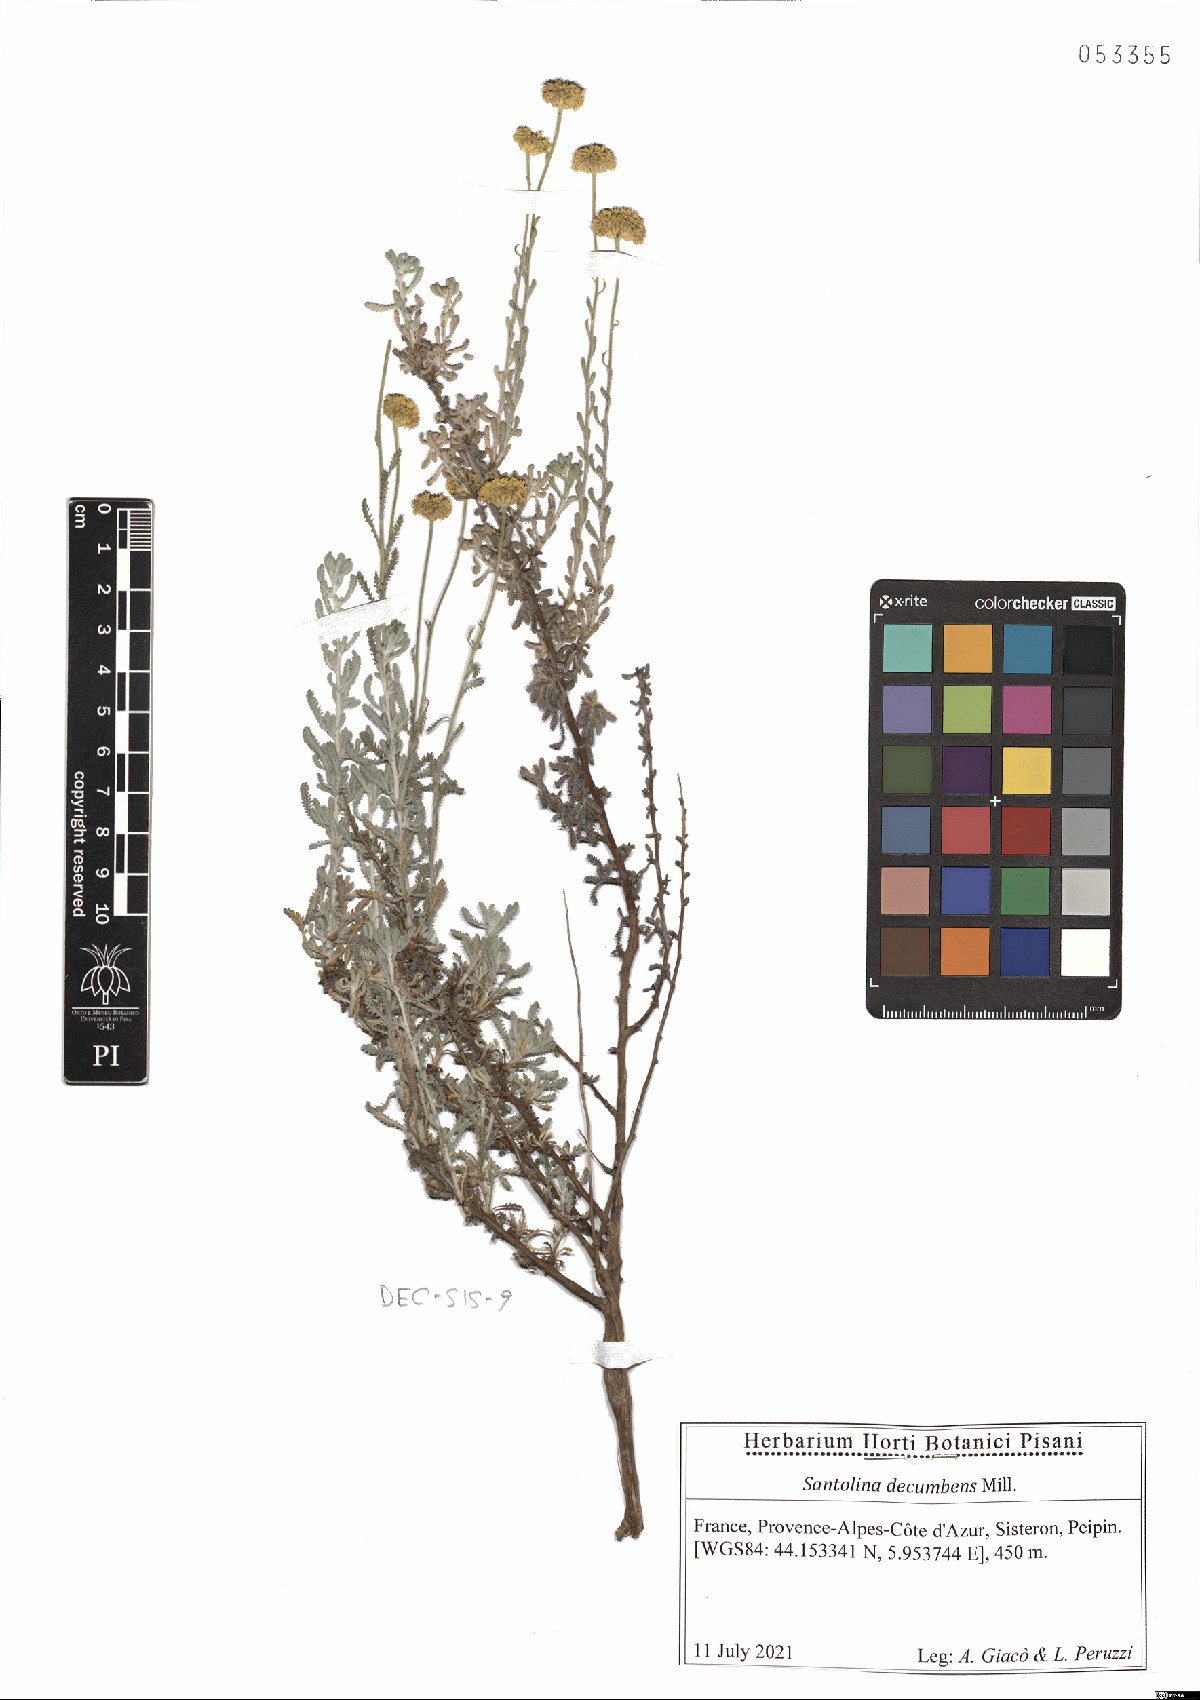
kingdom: Plantae
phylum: Tracheophyta
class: Magnoliopsida
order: Asterales
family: Asteraceae
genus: Santolina
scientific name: Santolina decumbens
